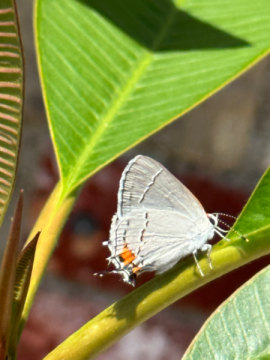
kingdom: Animalia
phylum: Arthropoda
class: Insecta
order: Lepidoptera
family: Lycaenidae
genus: Strymon
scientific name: Strymon melinus
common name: Gray Hairstreak
